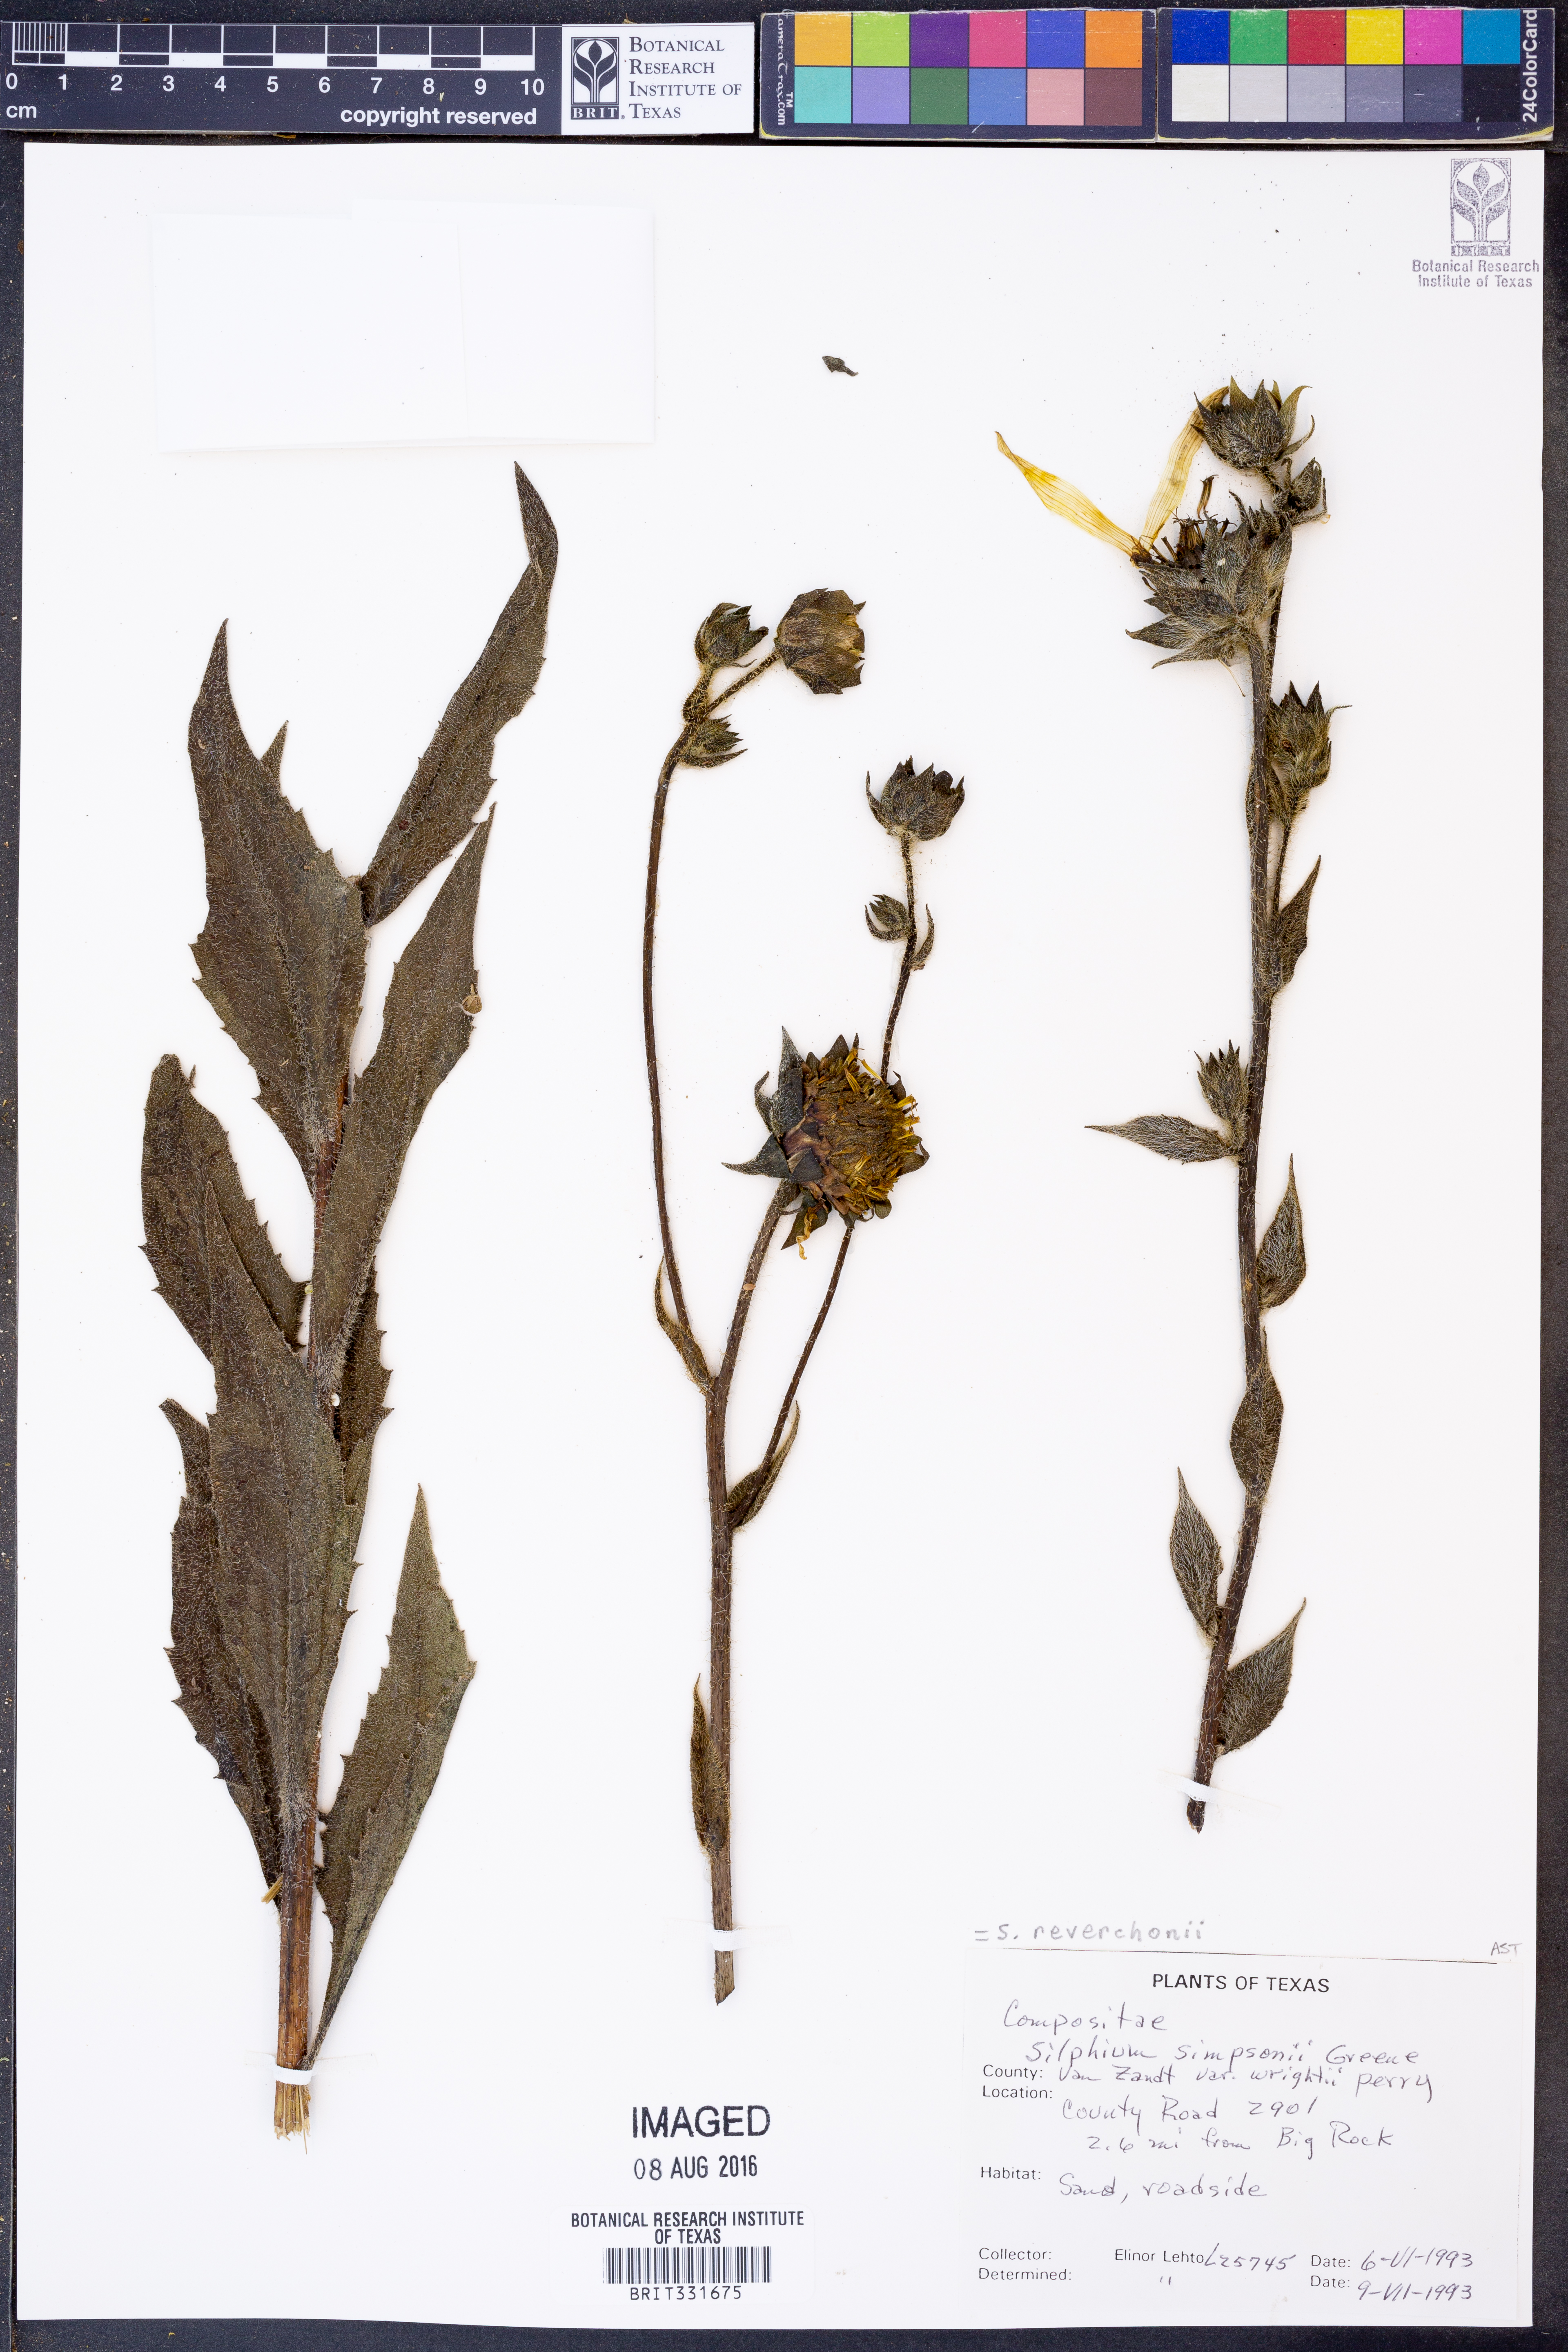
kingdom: Plantae
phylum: Tracheophyta
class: Magnoliopsida
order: Asterales
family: Asteraceae
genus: Silphium
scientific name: Silphium radula
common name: Roughleaf rosinweed
